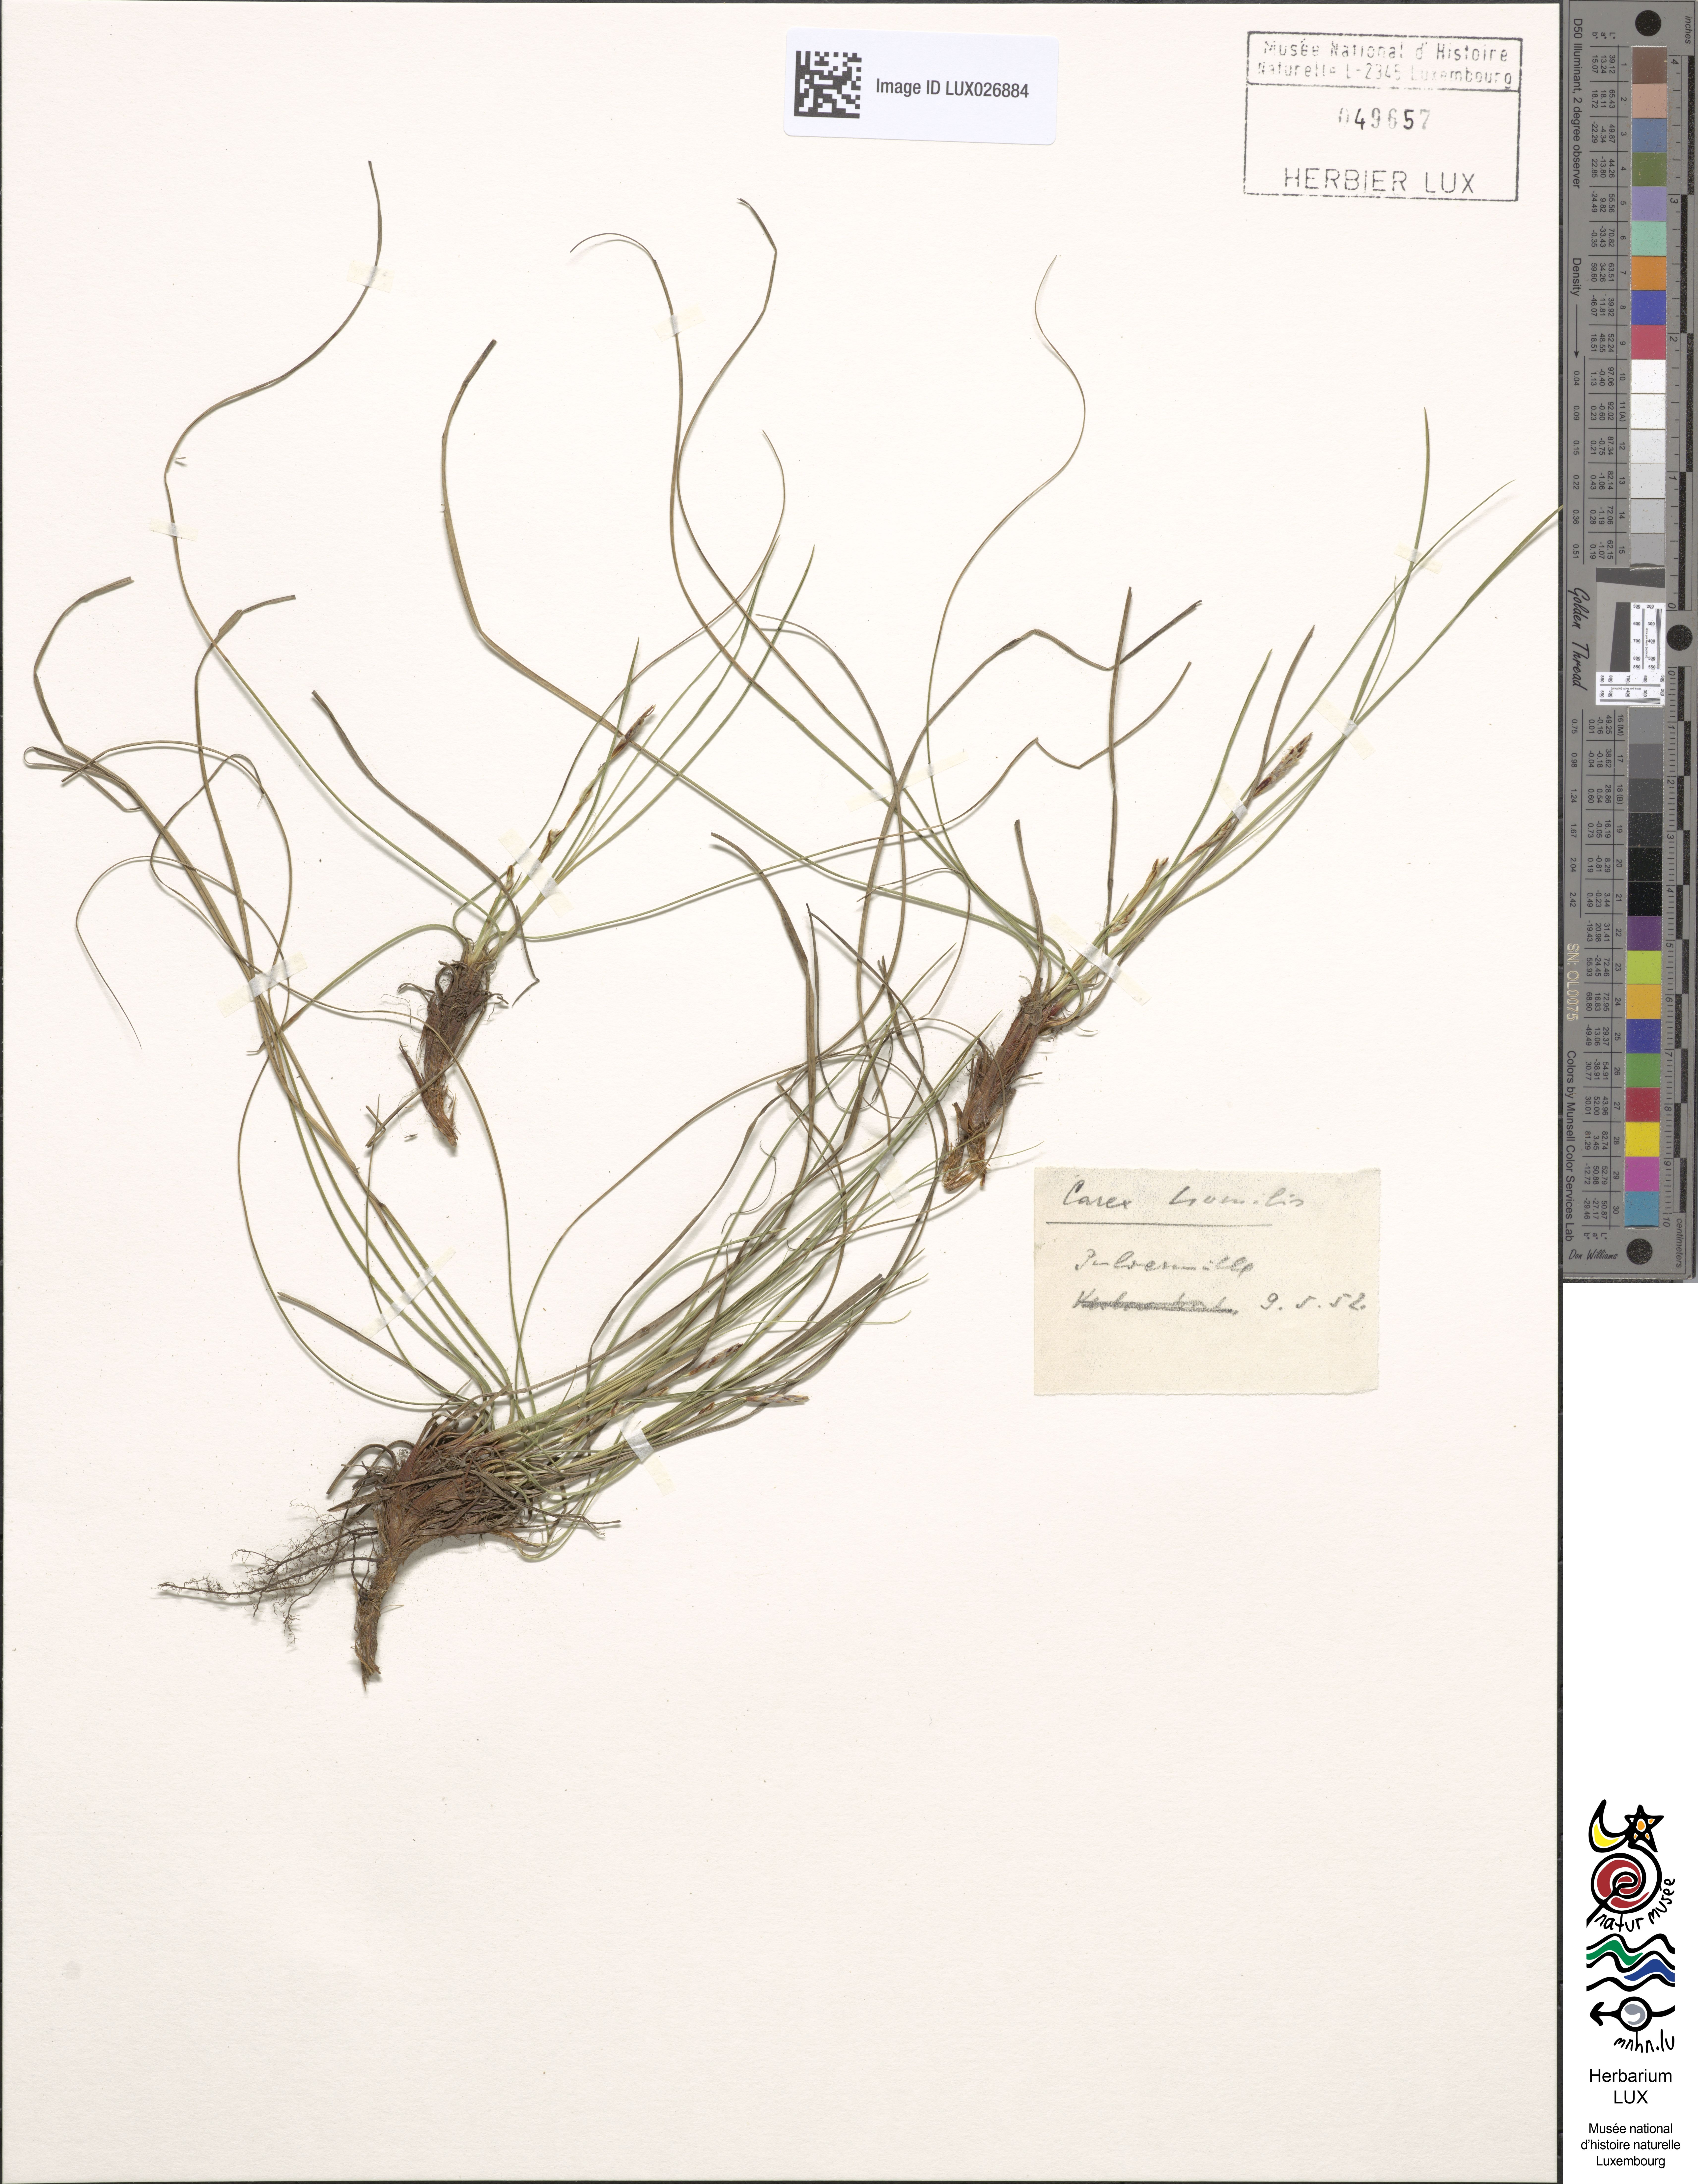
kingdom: Plantae
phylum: Tracheophyta
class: Liliopsida
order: Poales
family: Cyperaceae
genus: Carex
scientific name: Carex humilis
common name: Dwarf sedge
